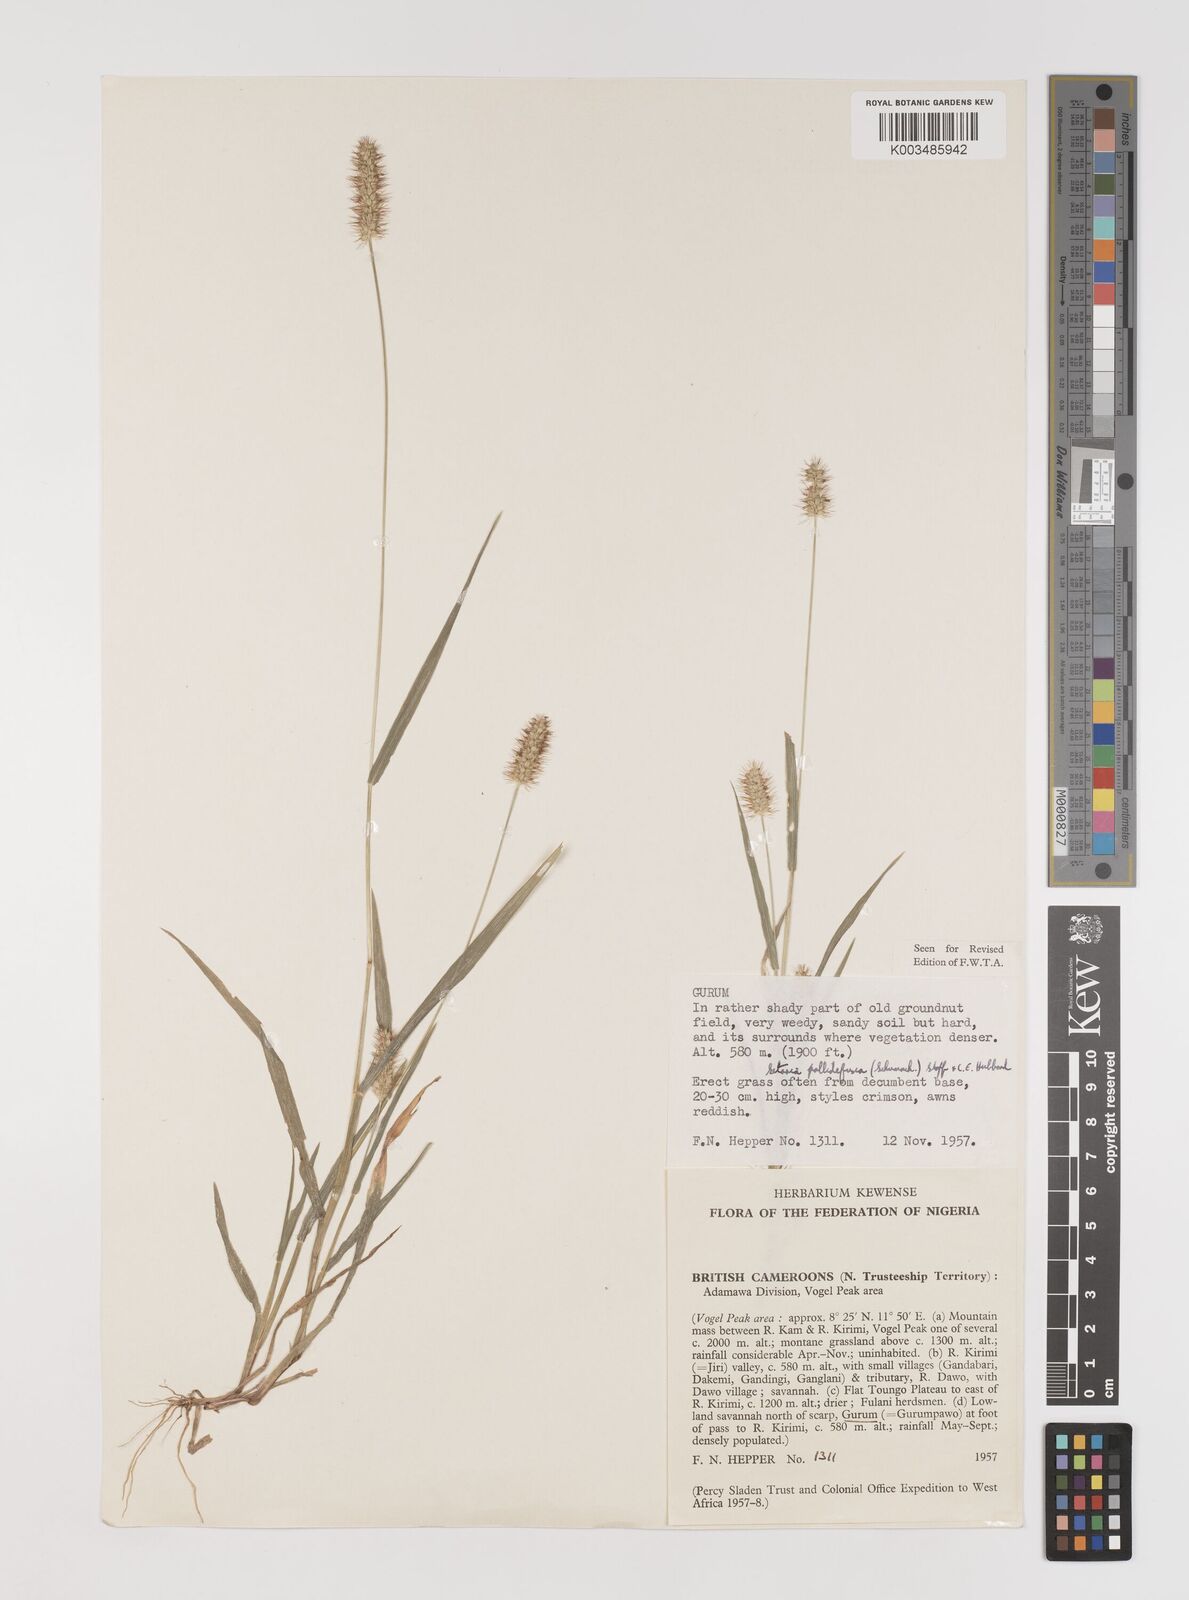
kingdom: Plantae
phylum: Tracheophyta
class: Liliopsida
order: Poales
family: Poaceae
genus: Setaria
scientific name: Setaria pumila
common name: Yellow bristle-grass
